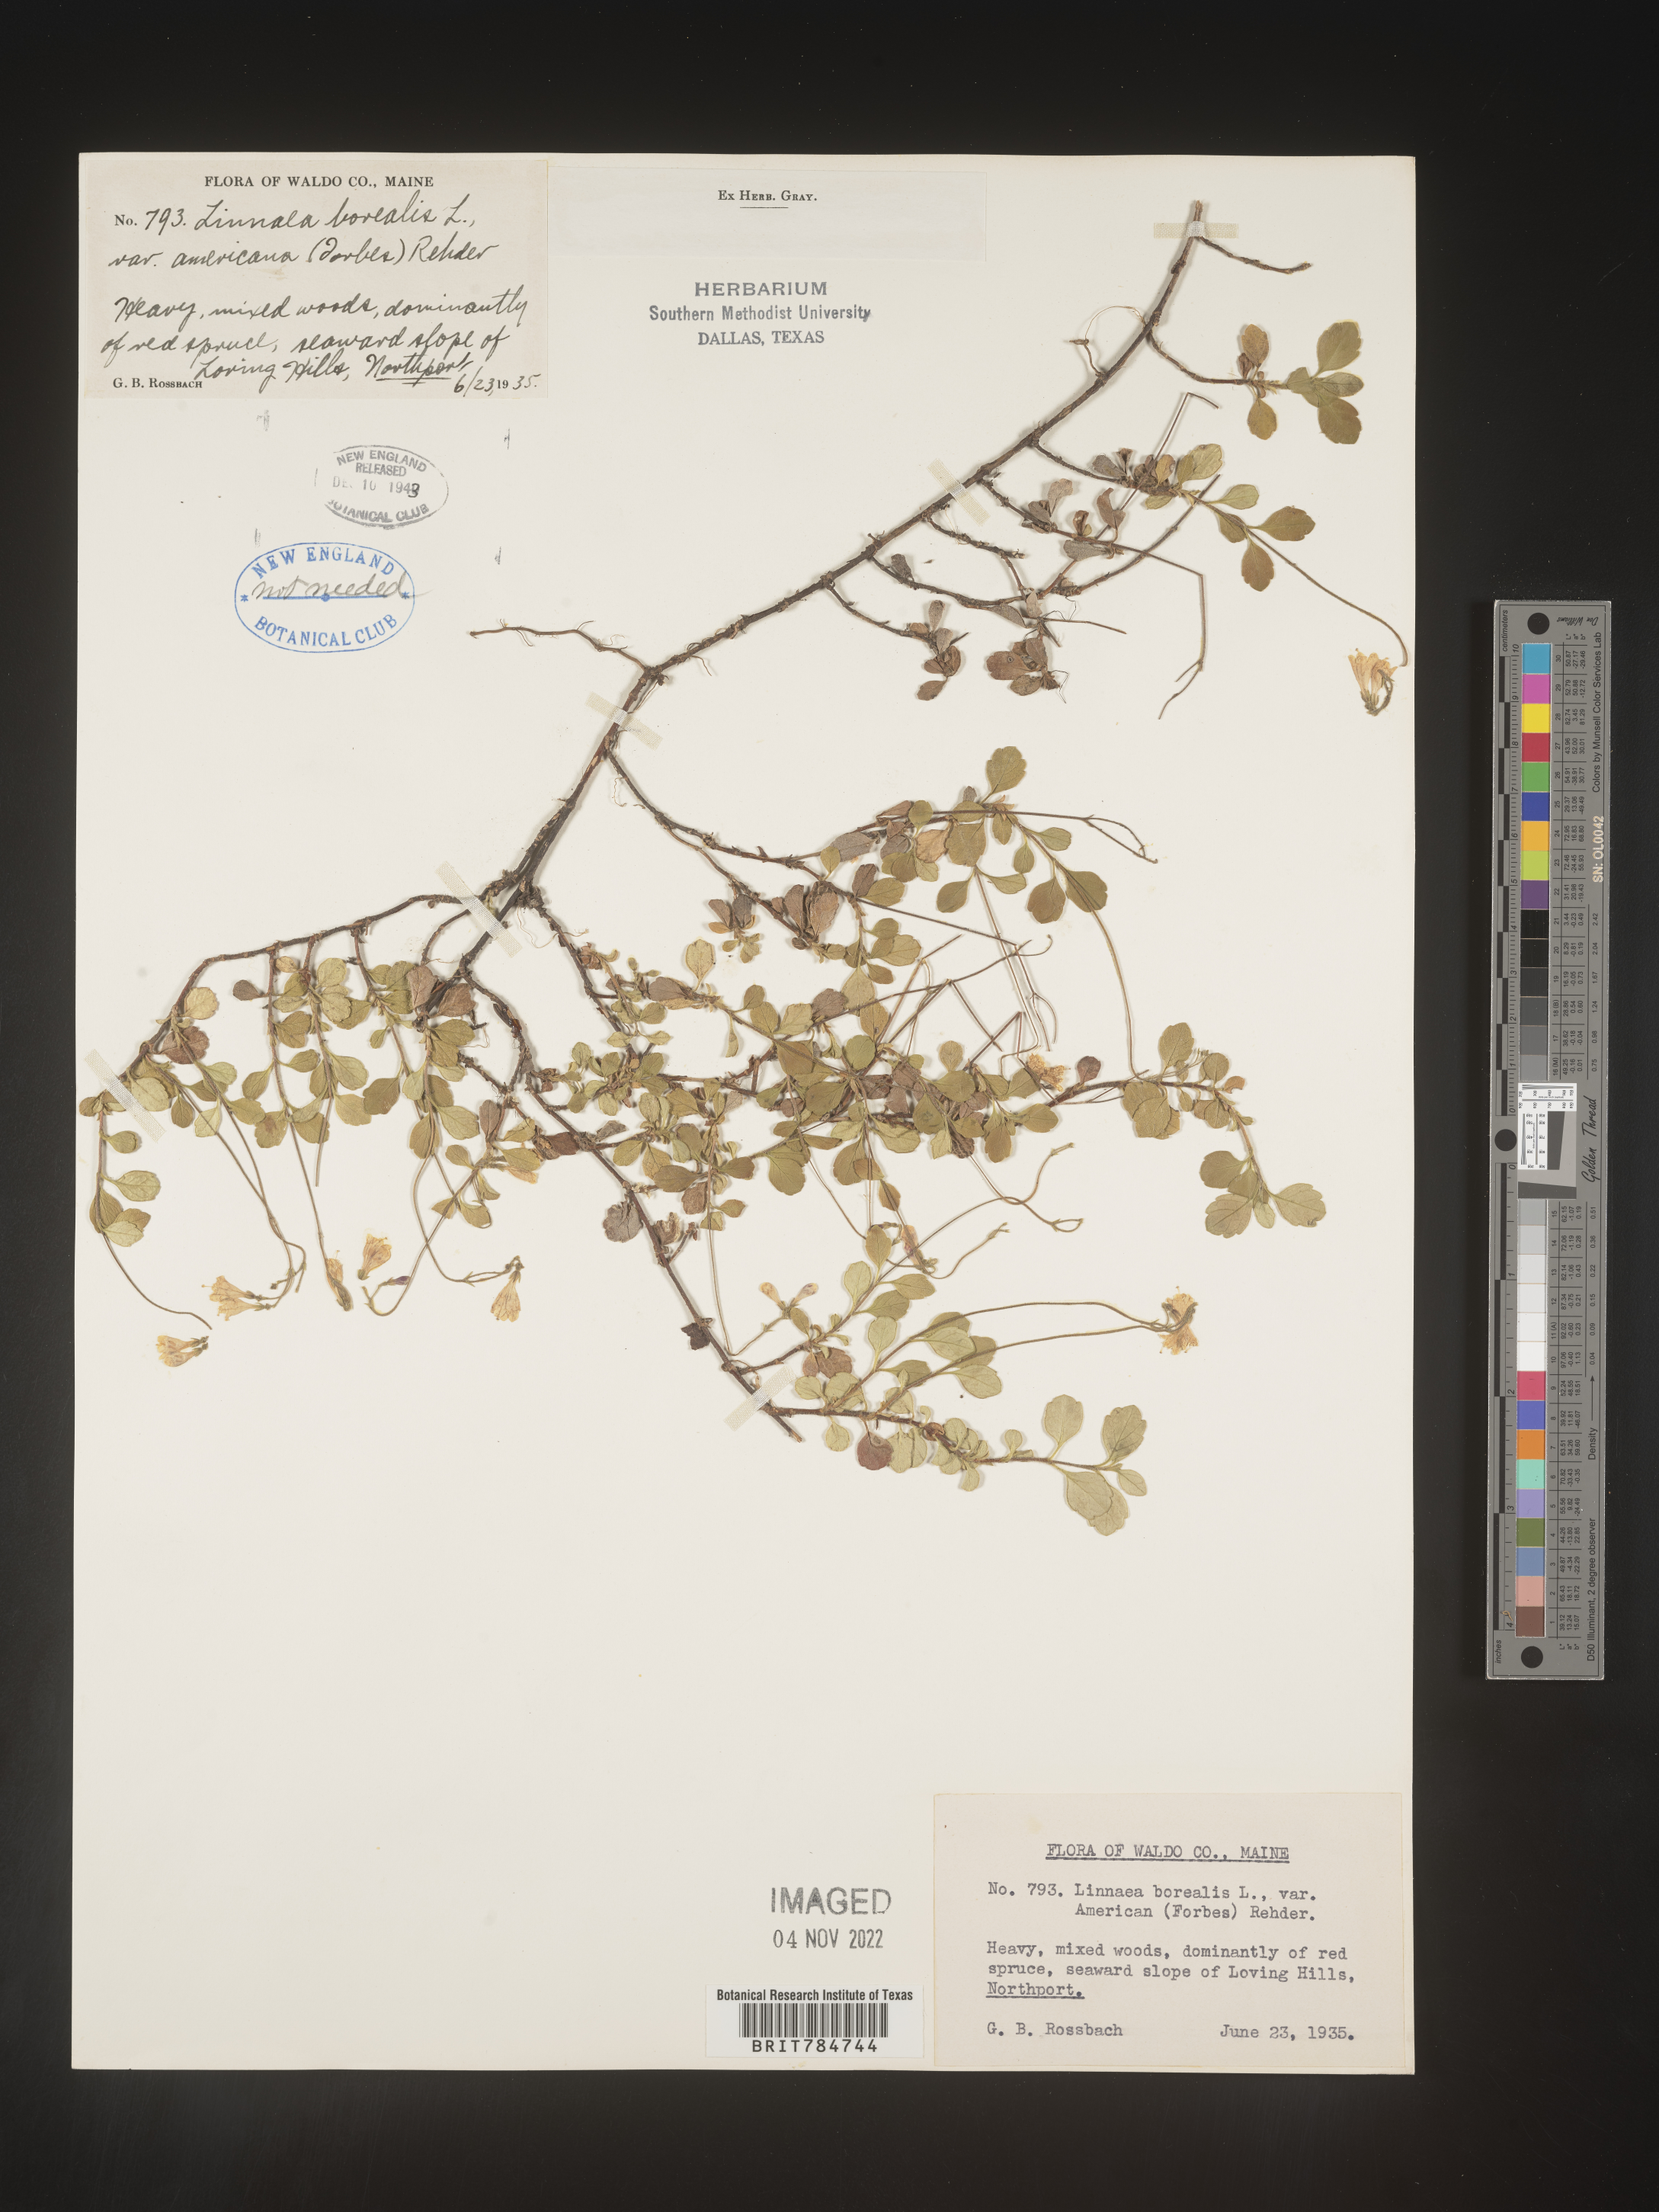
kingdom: Plantae
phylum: Tracheophyta
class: Magnoliopsida
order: Dipsacales
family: Caprifoliaceae
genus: Linnaea
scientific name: Linnaea borealis
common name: Twinflower
